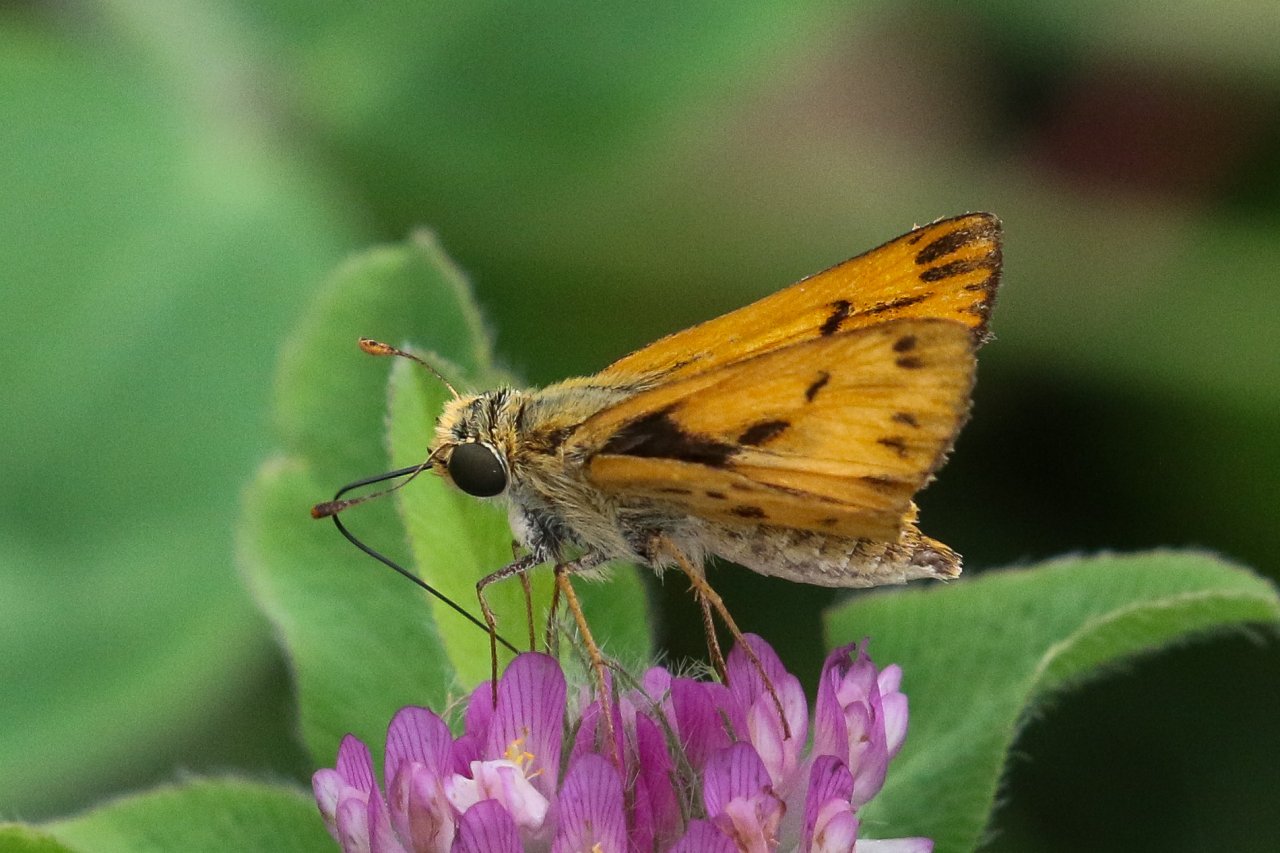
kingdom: Animalia
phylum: Arthropoda
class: Insecta
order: Lepidoptera
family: Hesperiidae
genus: Hylephila
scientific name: Hylephila phyleus
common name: Fiery Skipper
